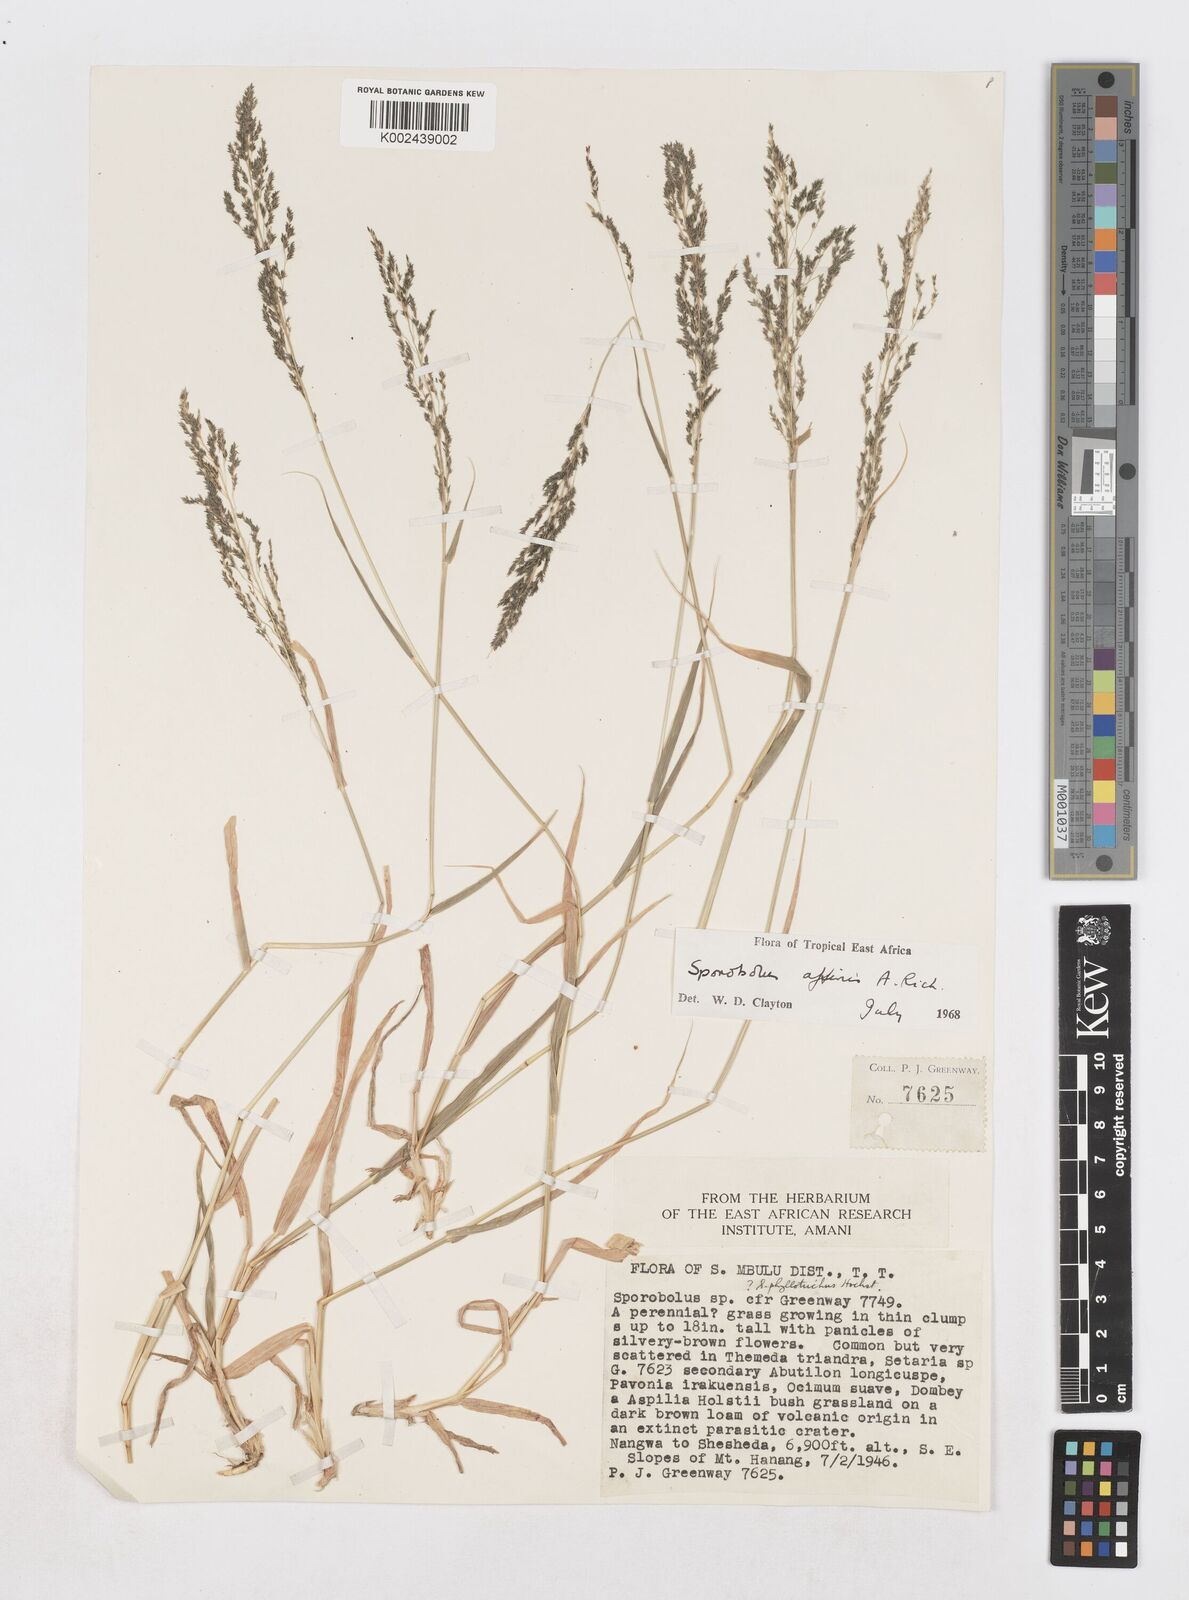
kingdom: Plantae
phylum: Tracheophyta
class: Liliopsida
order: Poales
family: Poaceae
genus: Sporobolus
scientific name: Sporobolus confinis
